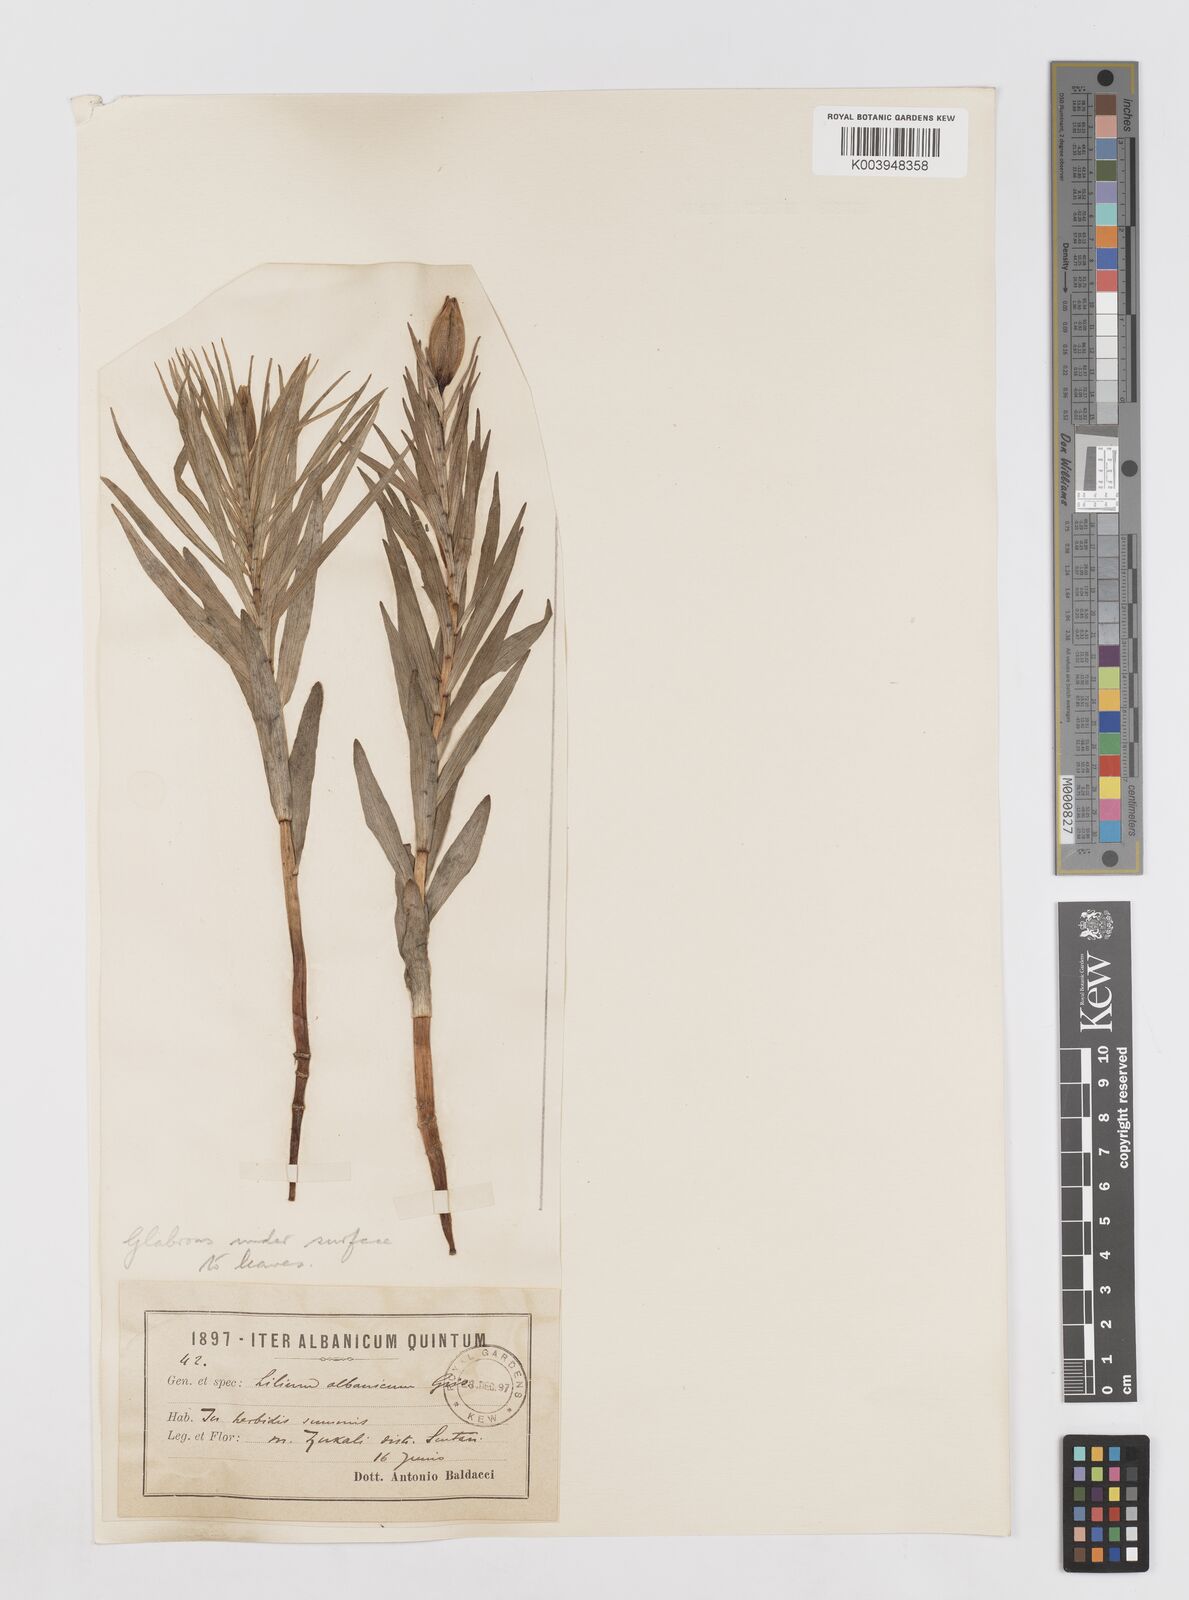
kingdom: Plantae
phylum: Tracheophyta
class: Liliopsida
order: Liliales
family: Liliaceae
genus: Lilium
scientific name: Lilium albanicum
